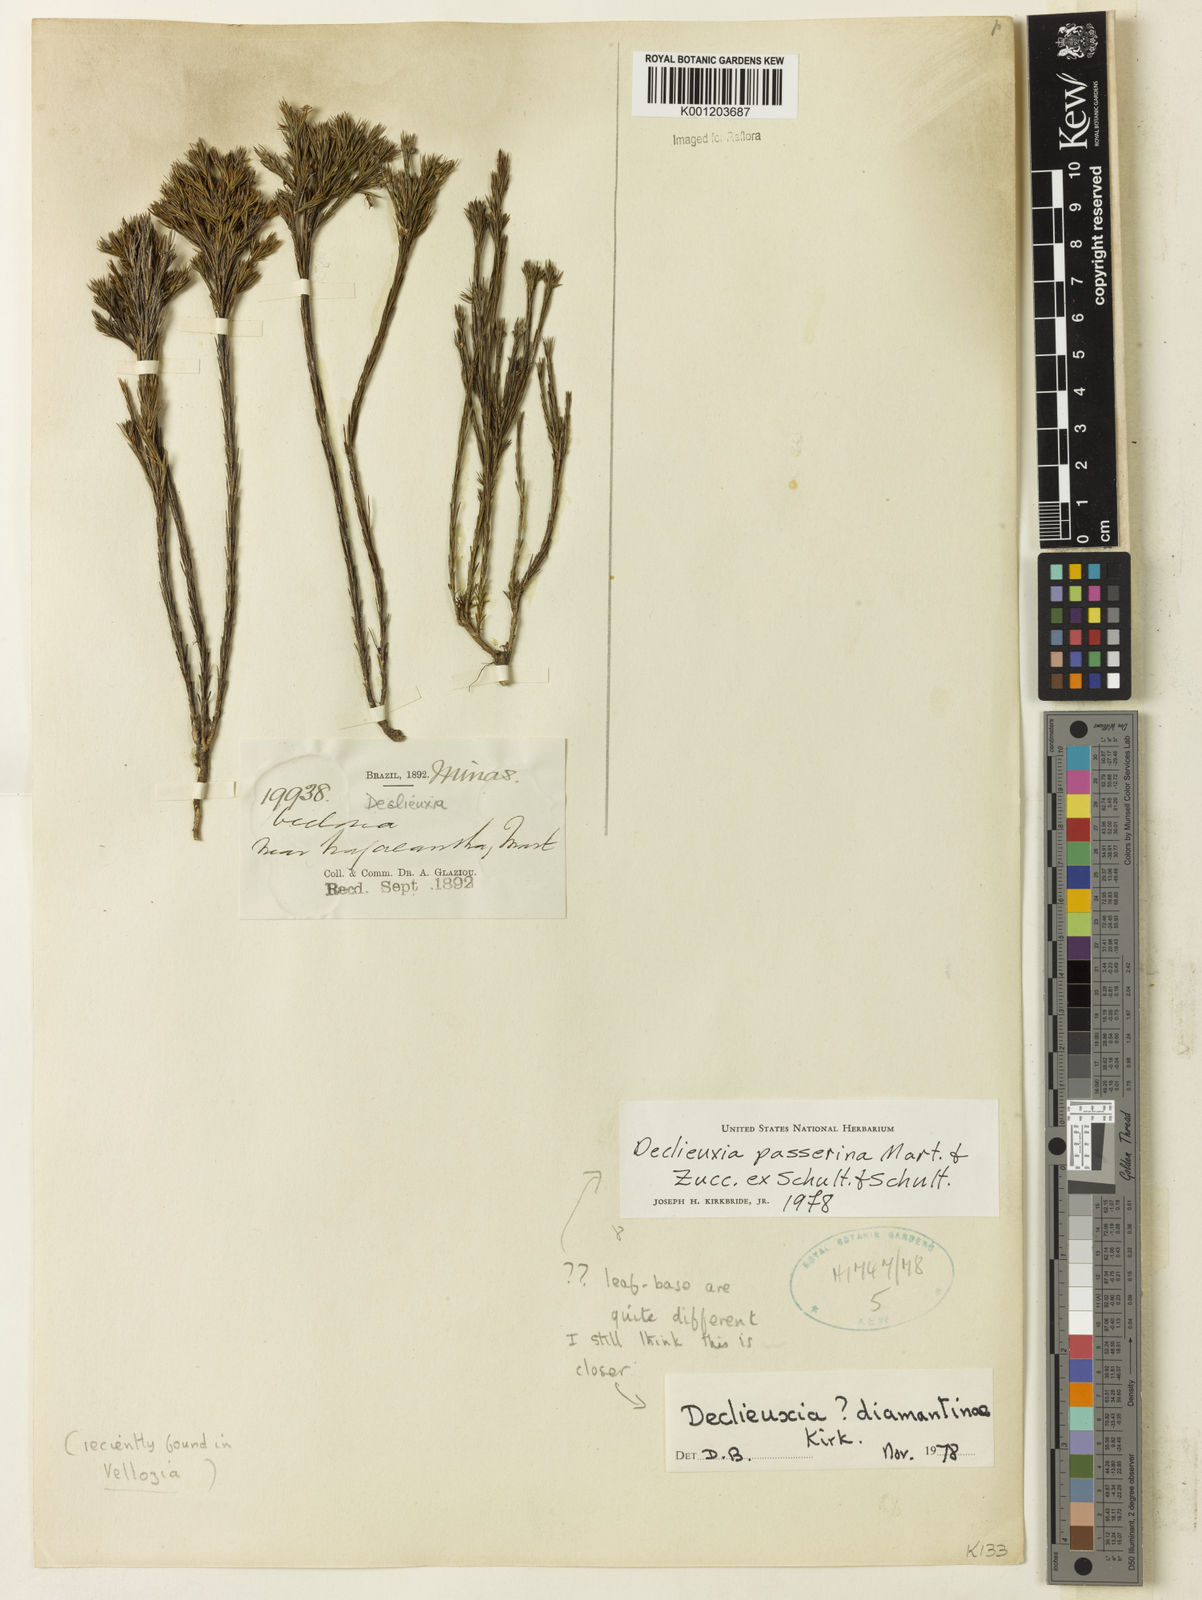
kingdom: Plantae
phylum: Tracheophyta
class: Magnoliopsida
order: Gentianales
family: Rubiaceae
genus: Declieuxia
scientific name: Declieuxia
